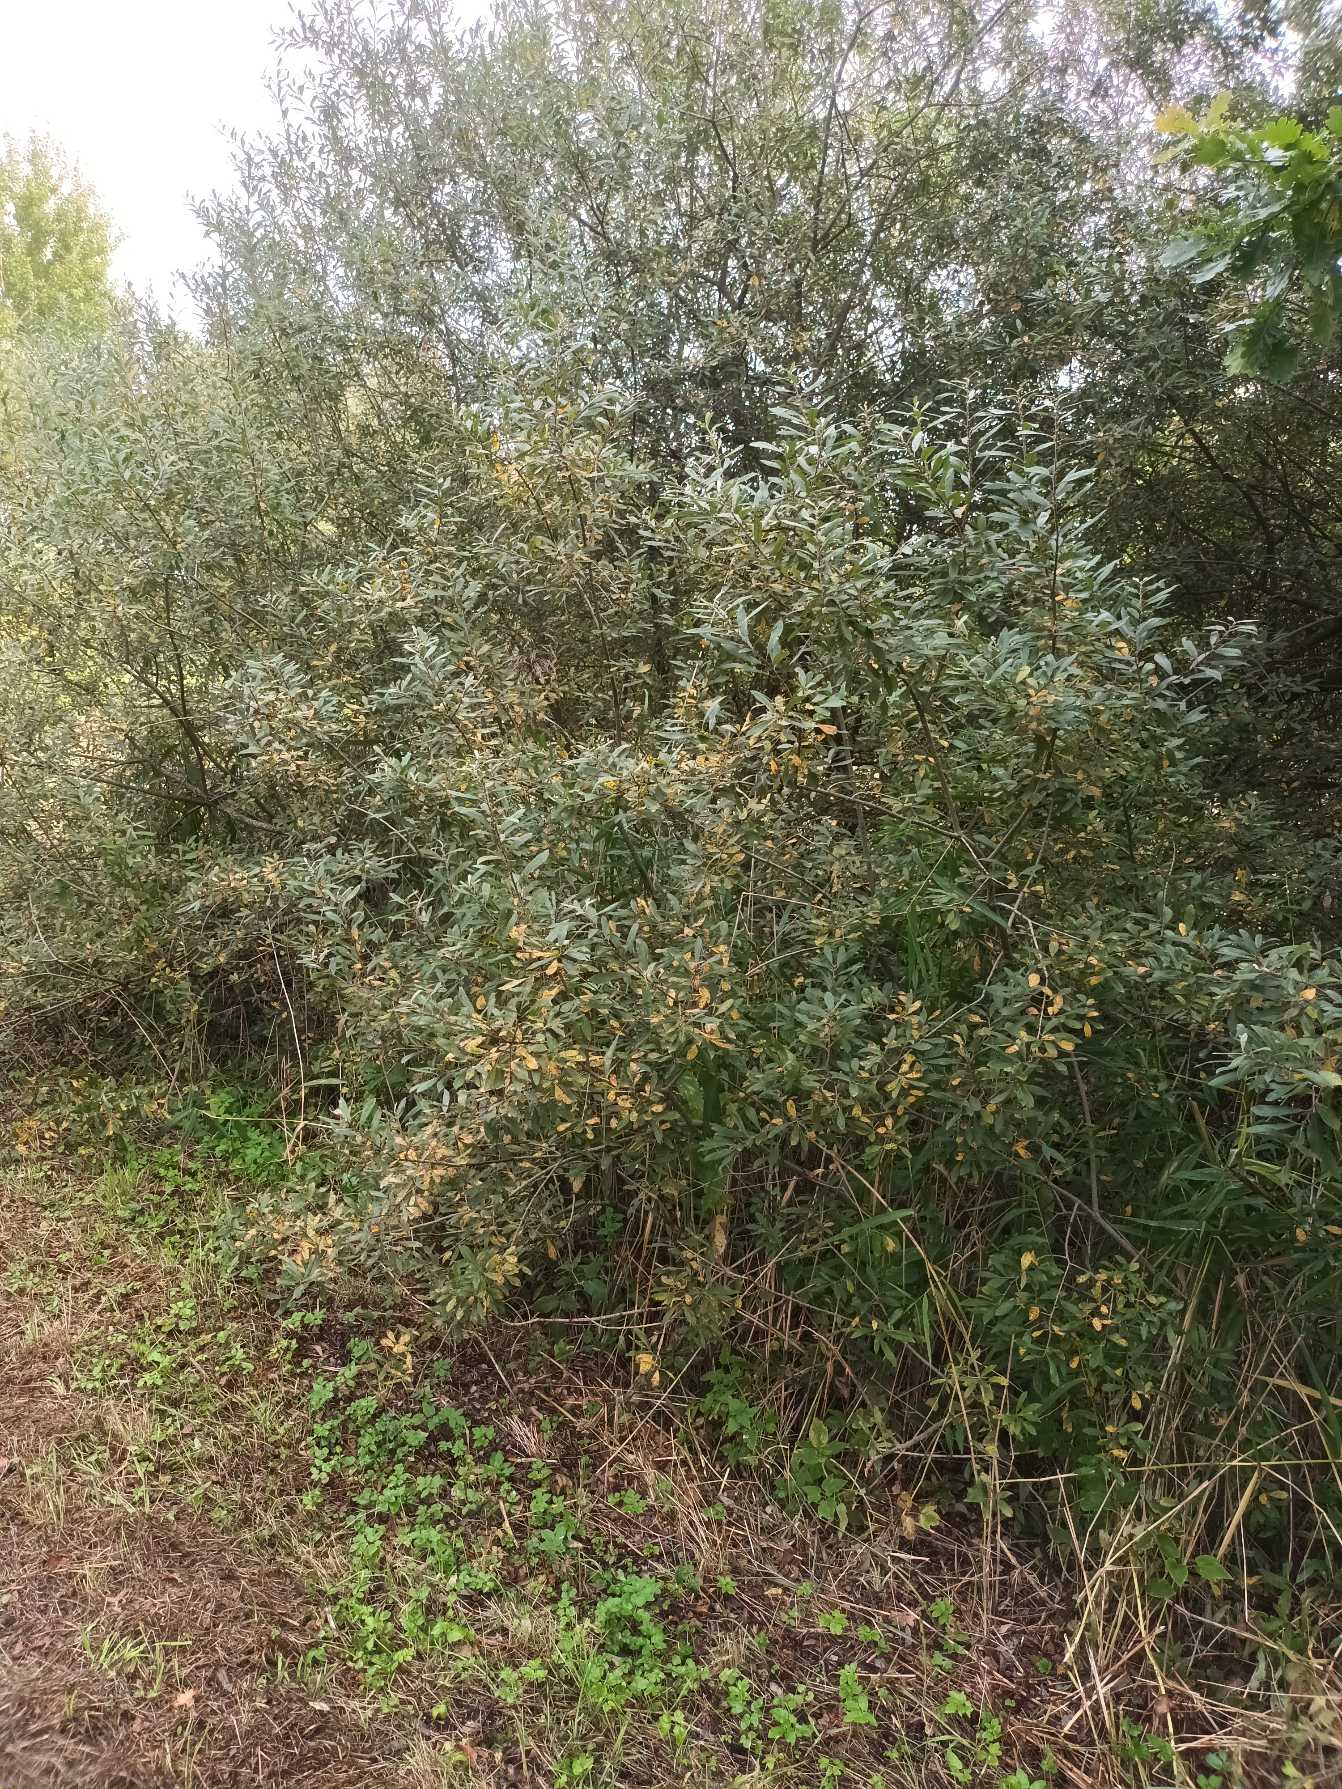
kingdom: Plantae
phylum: Tracheophyta
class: Magnoliopsida
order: Malpighiales
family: Salicaceae
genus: Salix
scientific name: Salix cinerea
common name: Grå-pil
